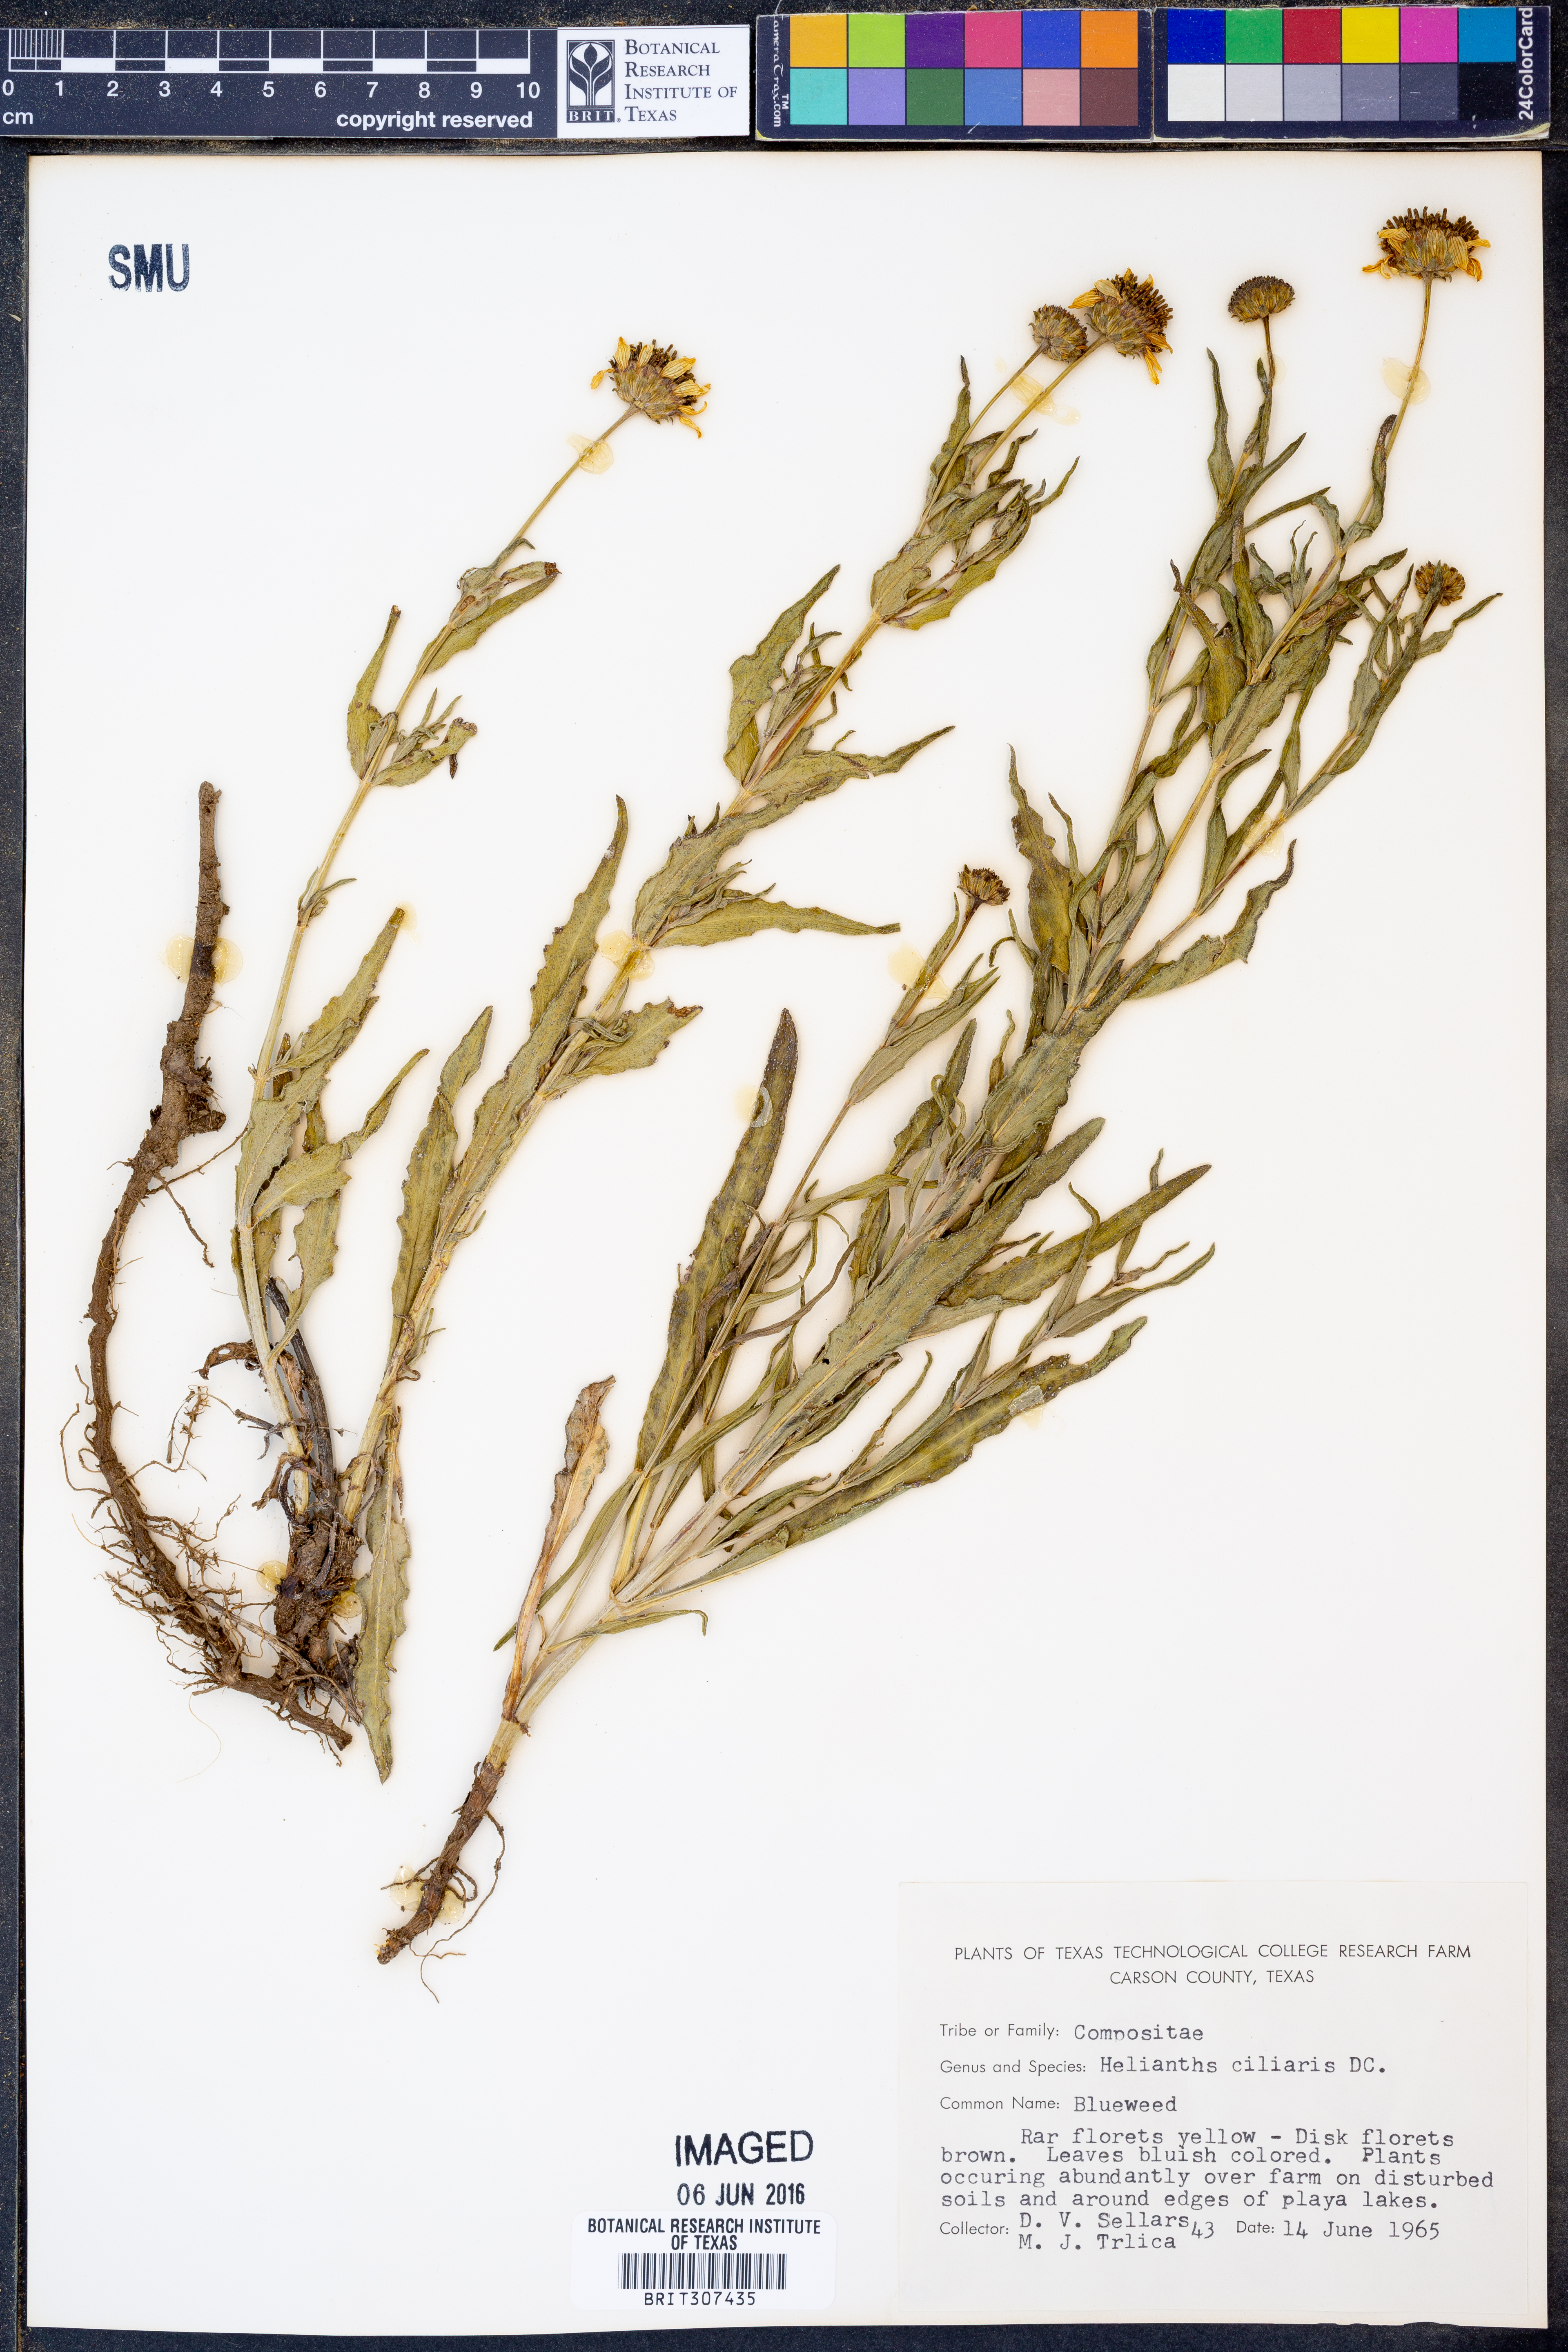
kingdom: Plantae
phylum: Tracheophyta
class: Magnoliopsida
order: Asterales
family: Asteraceae
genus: Helianthus
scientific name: Helianthus ciliaris
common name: Texas blueweed
